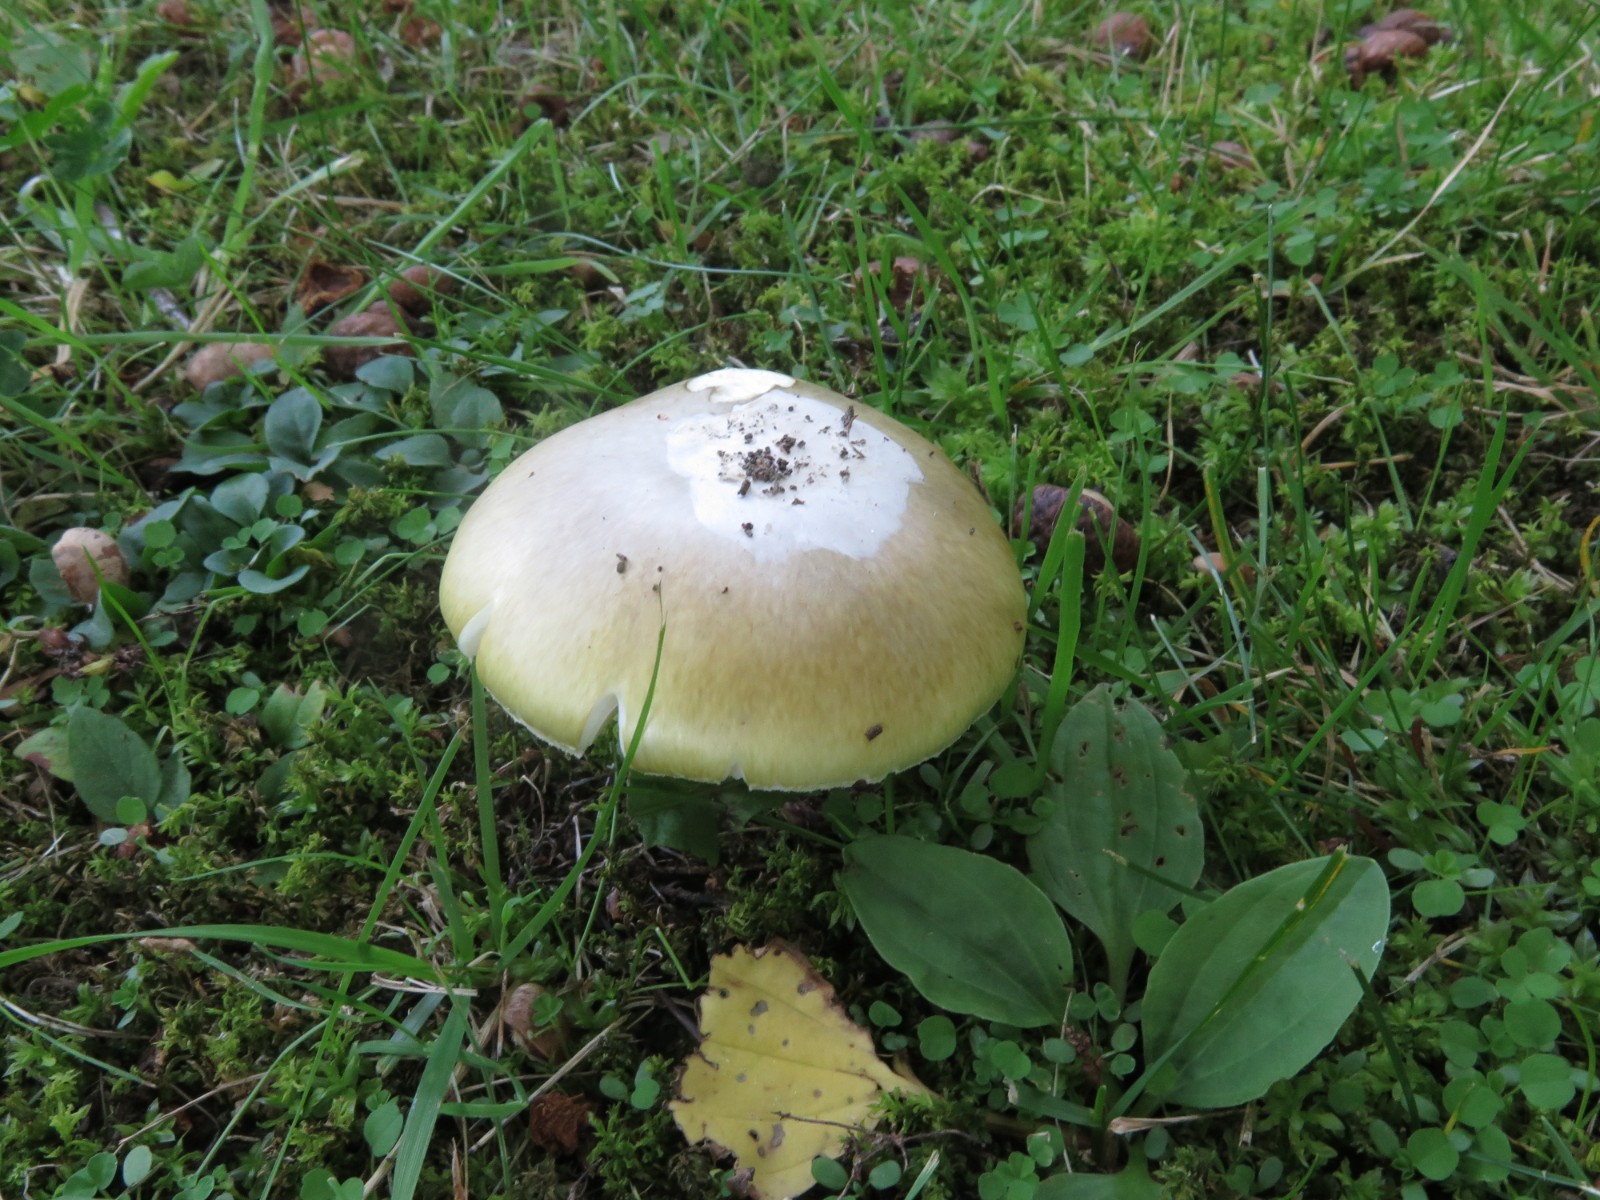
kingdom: Fungi
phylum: Basidiomycota
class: Agaricomycetes
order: Agaricales
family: Amanitaceae
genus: Amanita
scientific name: Amanita phalloides
